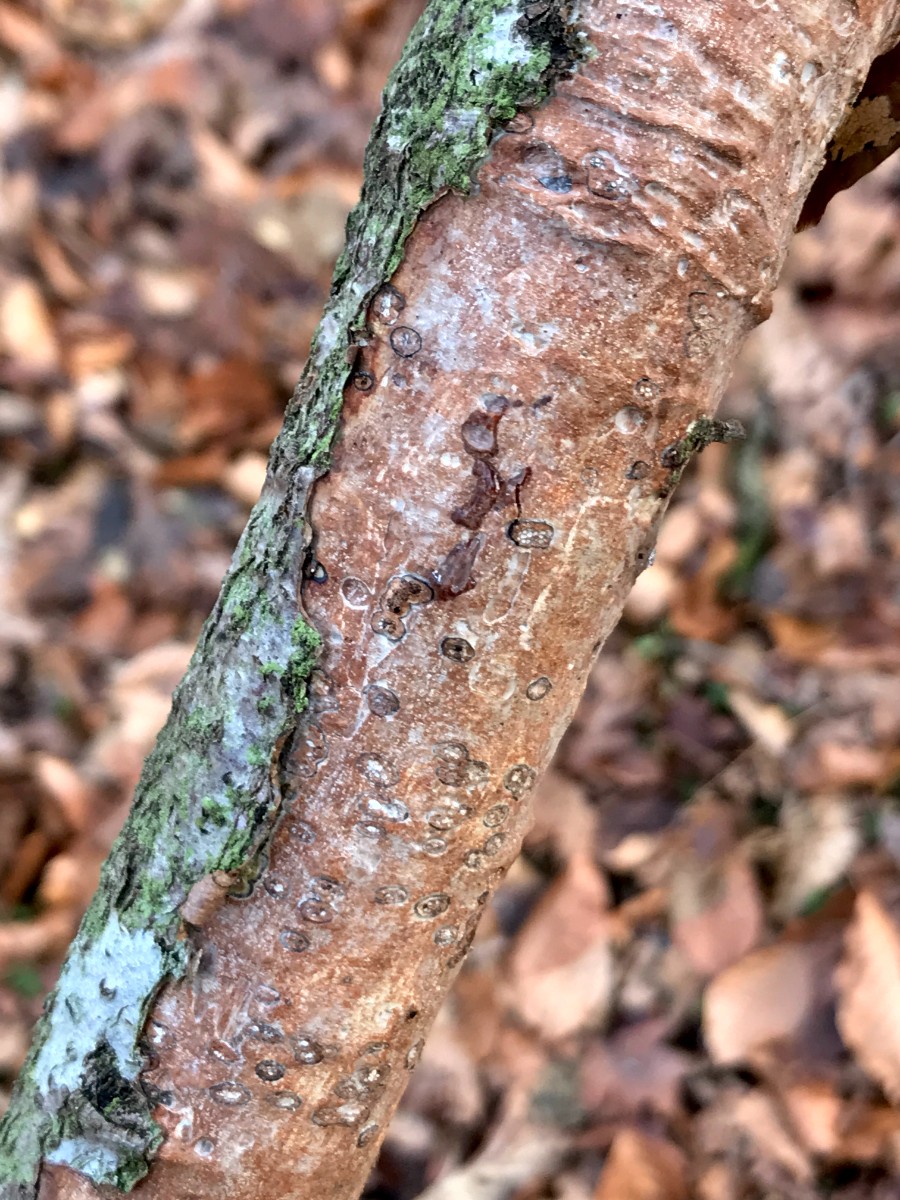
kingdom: Fungi
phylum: Basidiomycota
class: Agaricomycetes
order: Corticiales
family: Vuilleminiaceae
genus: Vuilleminia
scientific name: Vuilleminia comedens
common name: almindelig barksprænger
